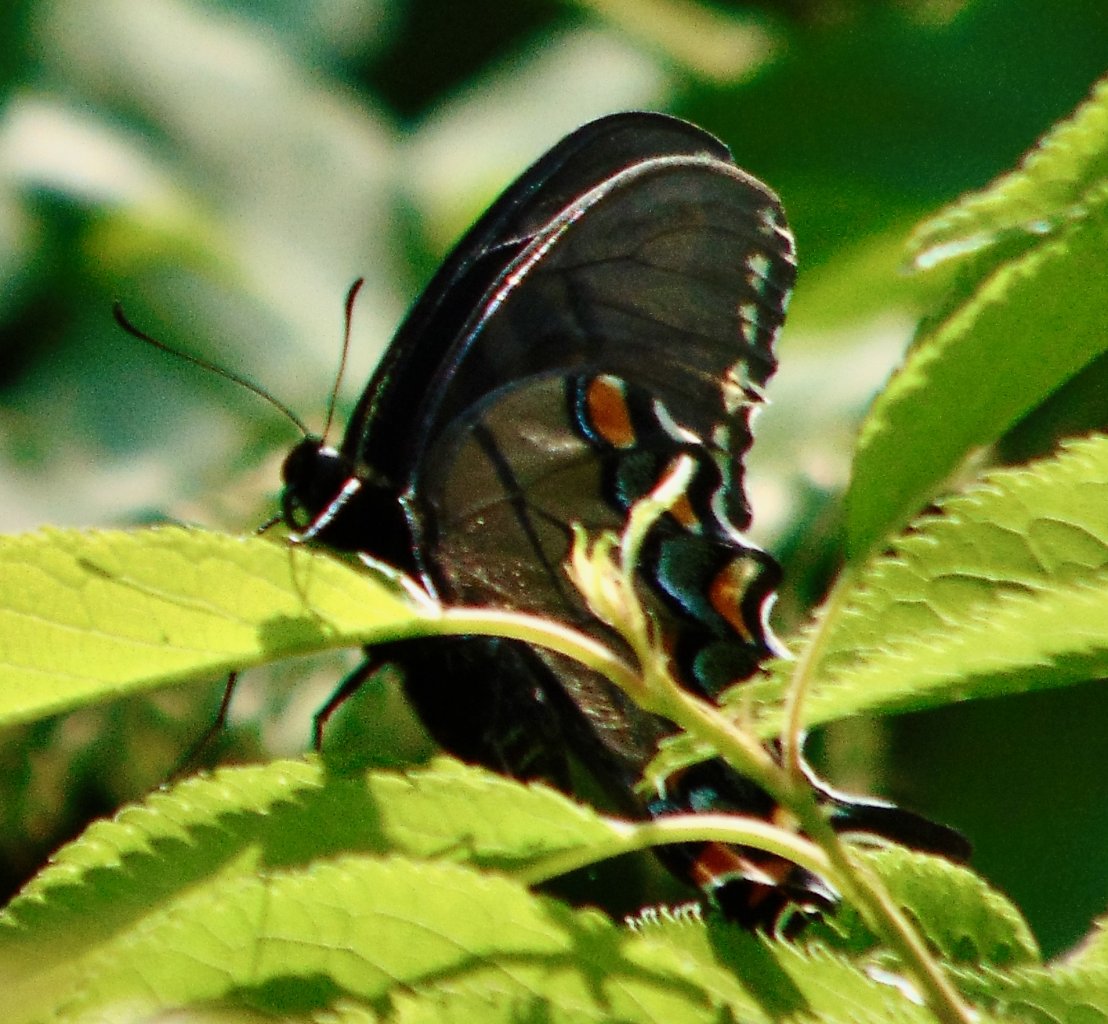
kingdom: Animalia
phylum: Arthropoda
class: Insecta
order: Lepidoptera
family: Papilionidae
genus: Pterourus
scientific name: Pterourus glaucus
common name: Eastern Tiger Swallowtail
